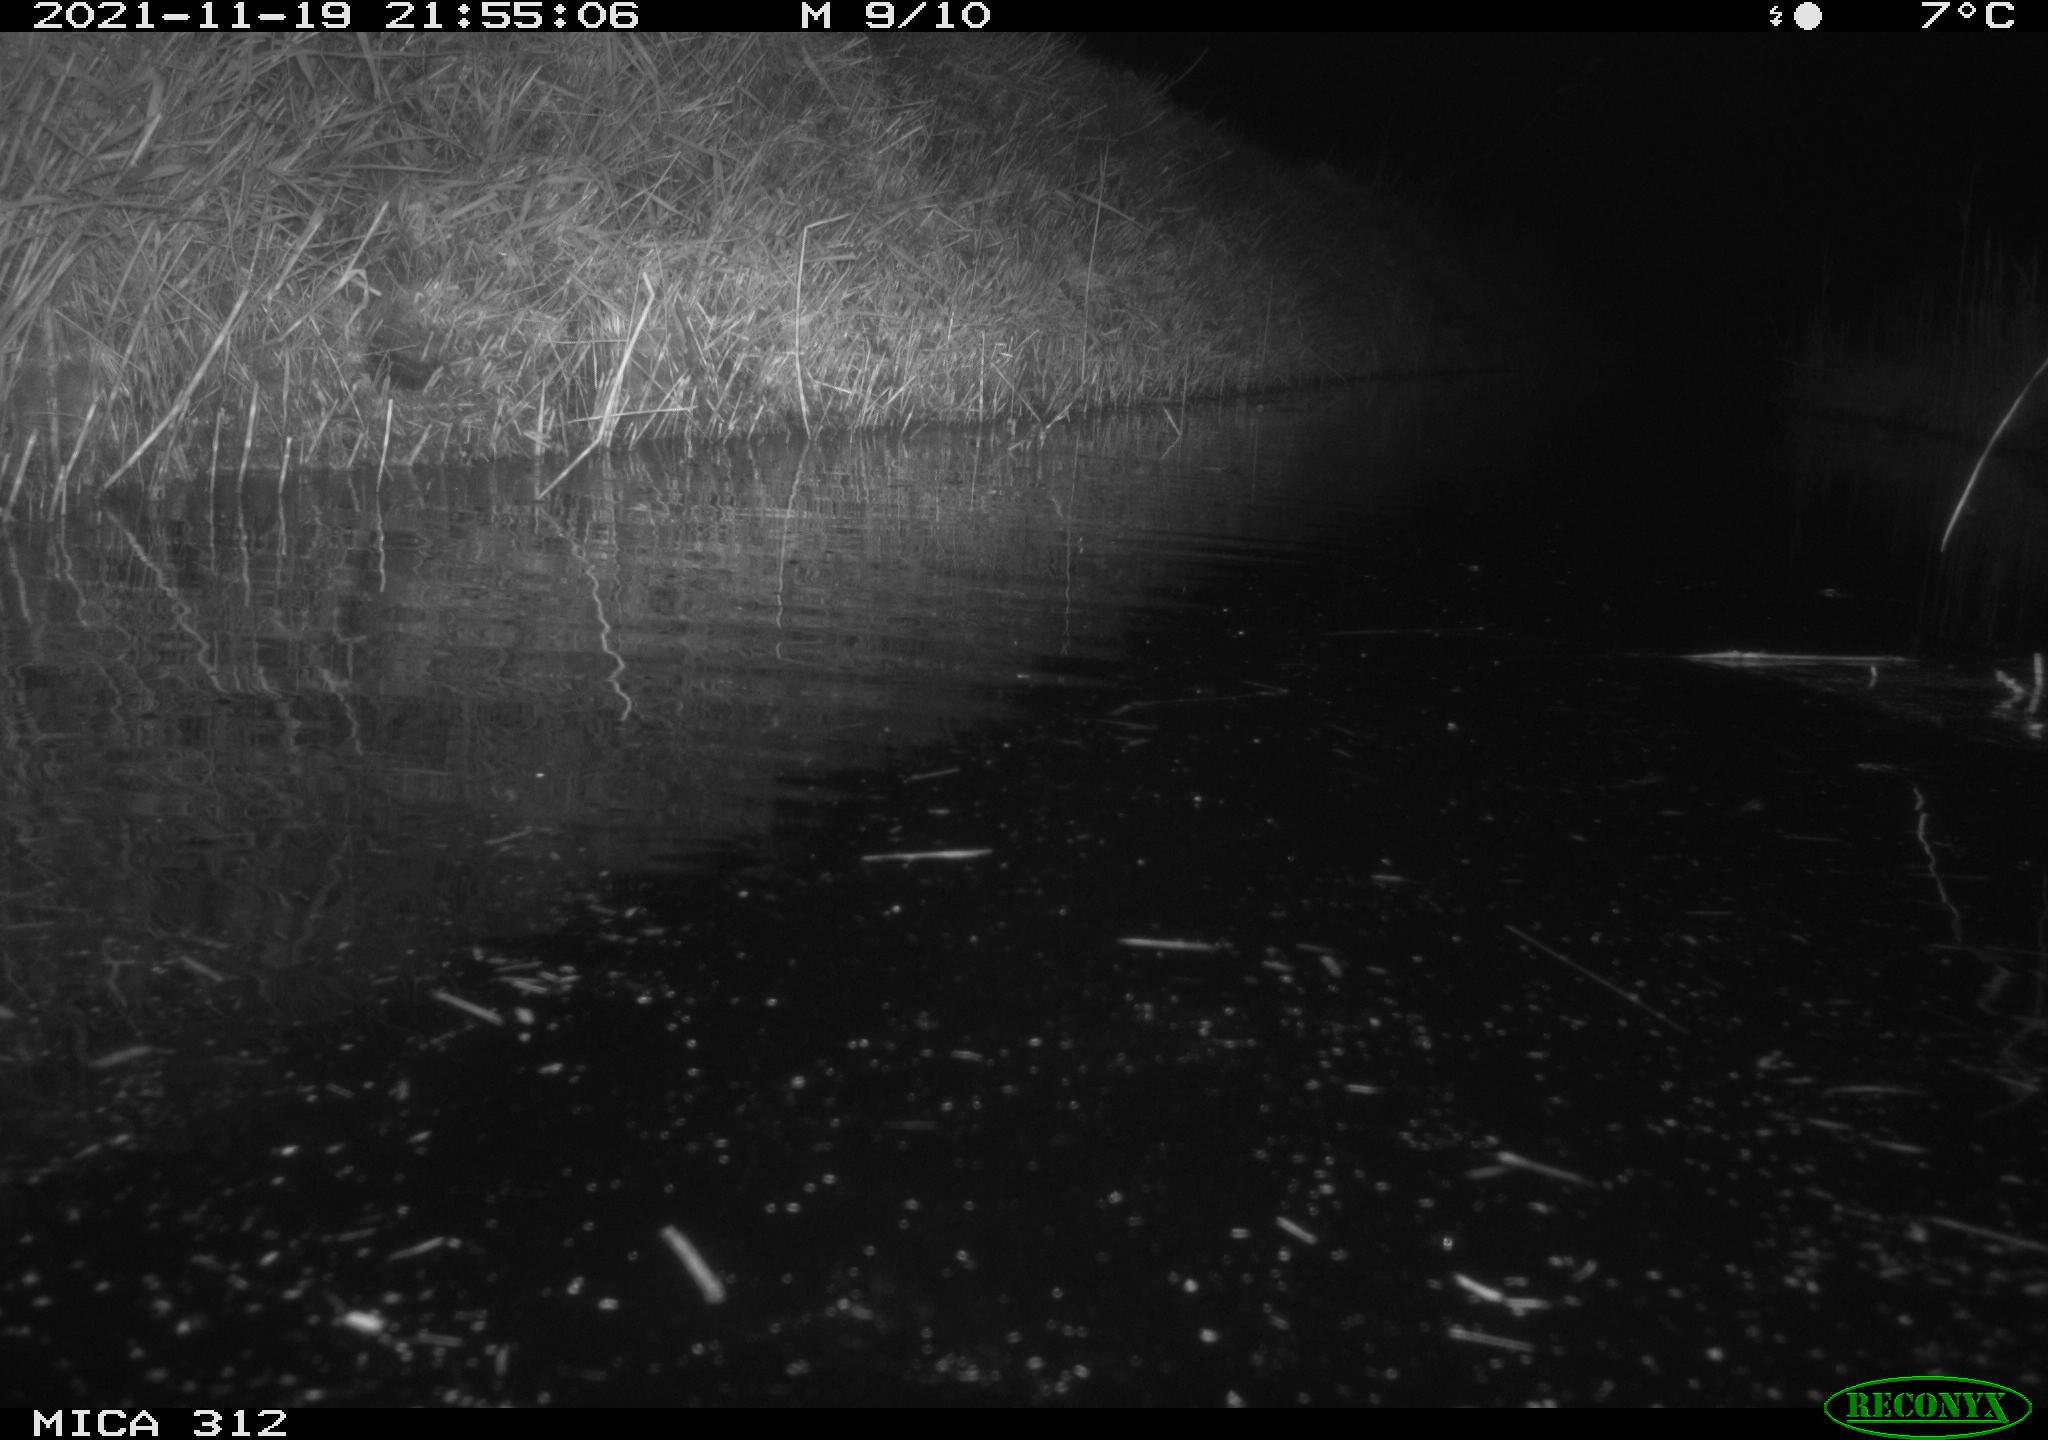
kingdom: Animalia
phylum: Chordata
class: Mammalia
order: Rodentia
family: Muridae
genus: Rattus
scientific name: Rattus norvegicus
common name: Brown rat
